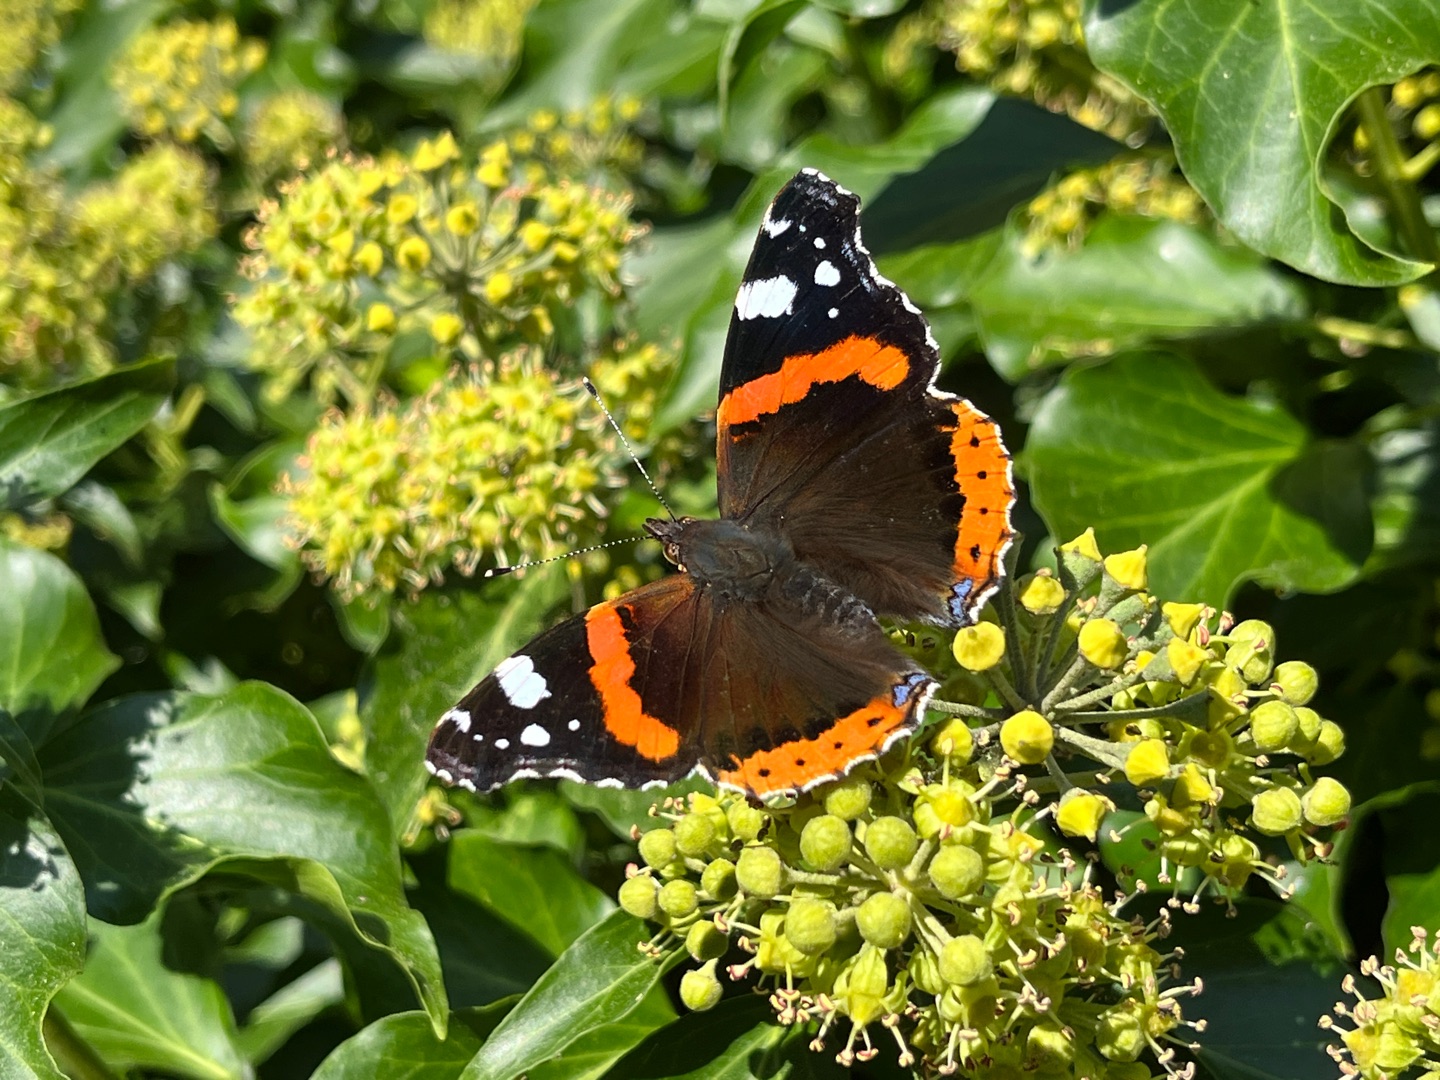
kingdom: Animalia
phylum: Arthropoda
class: Insecta
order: Lepidoptera
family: Nymphalidae
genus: Vanessa
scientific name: Vanessa atalanta
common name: Admiral
